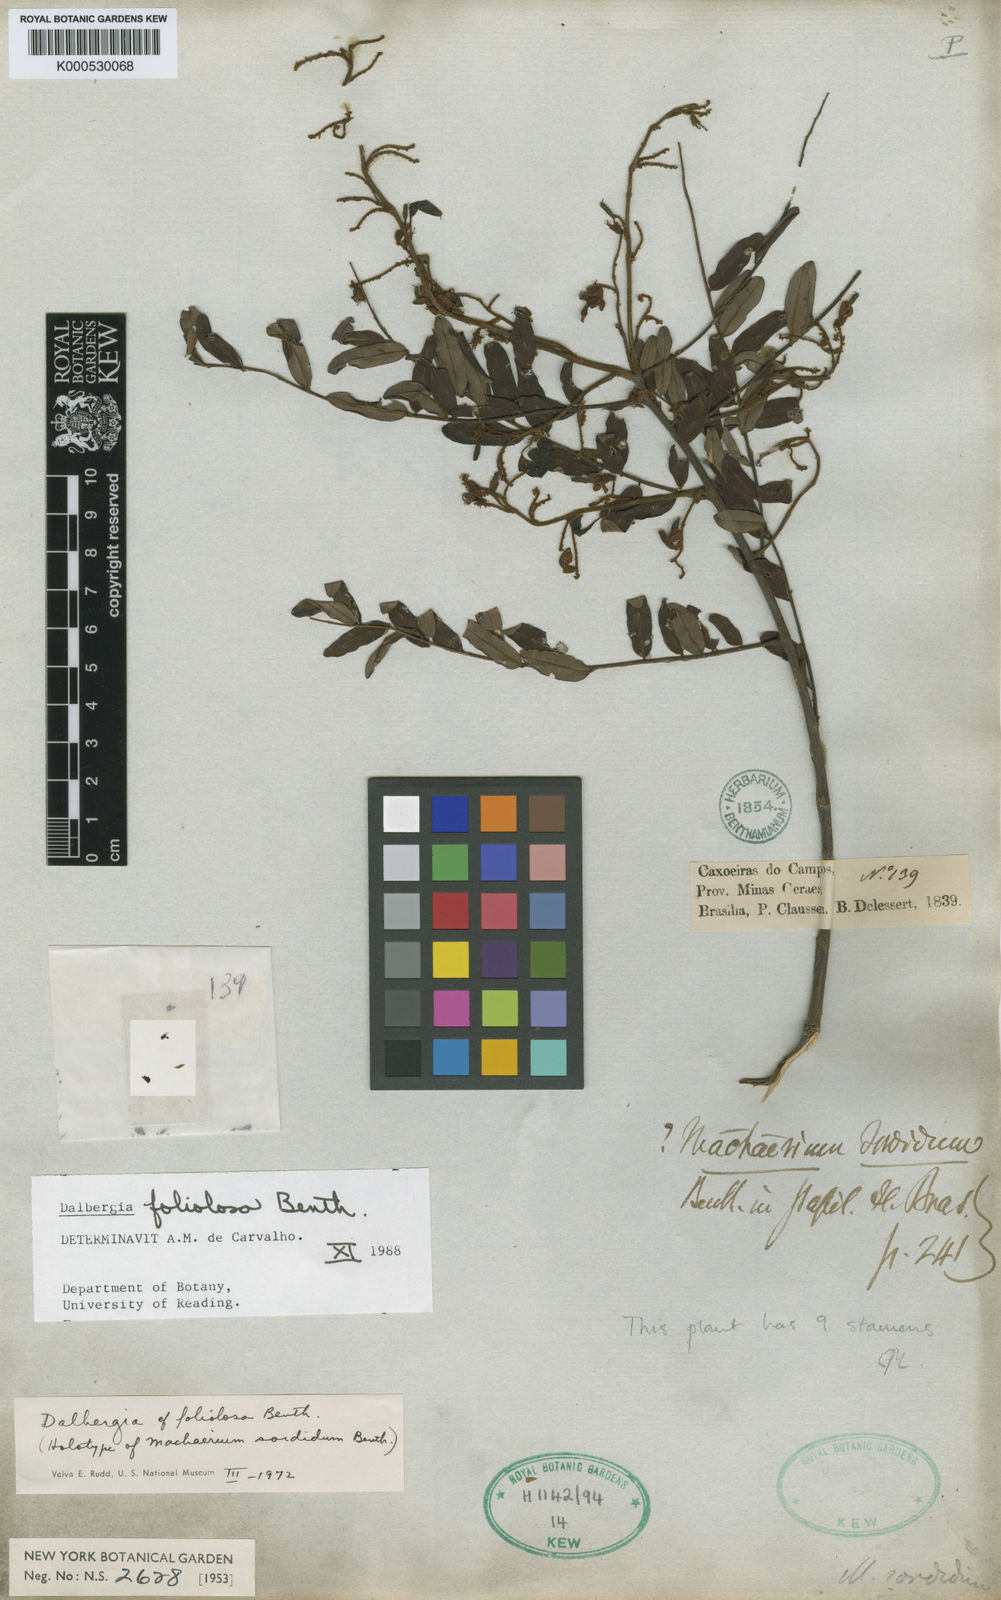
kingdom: Plantae
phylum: Tracheophyta
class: Magnoliopsida
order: Fabales
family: Fabaceae
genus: Dalbergia
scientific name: Dalbergia foliolosa
